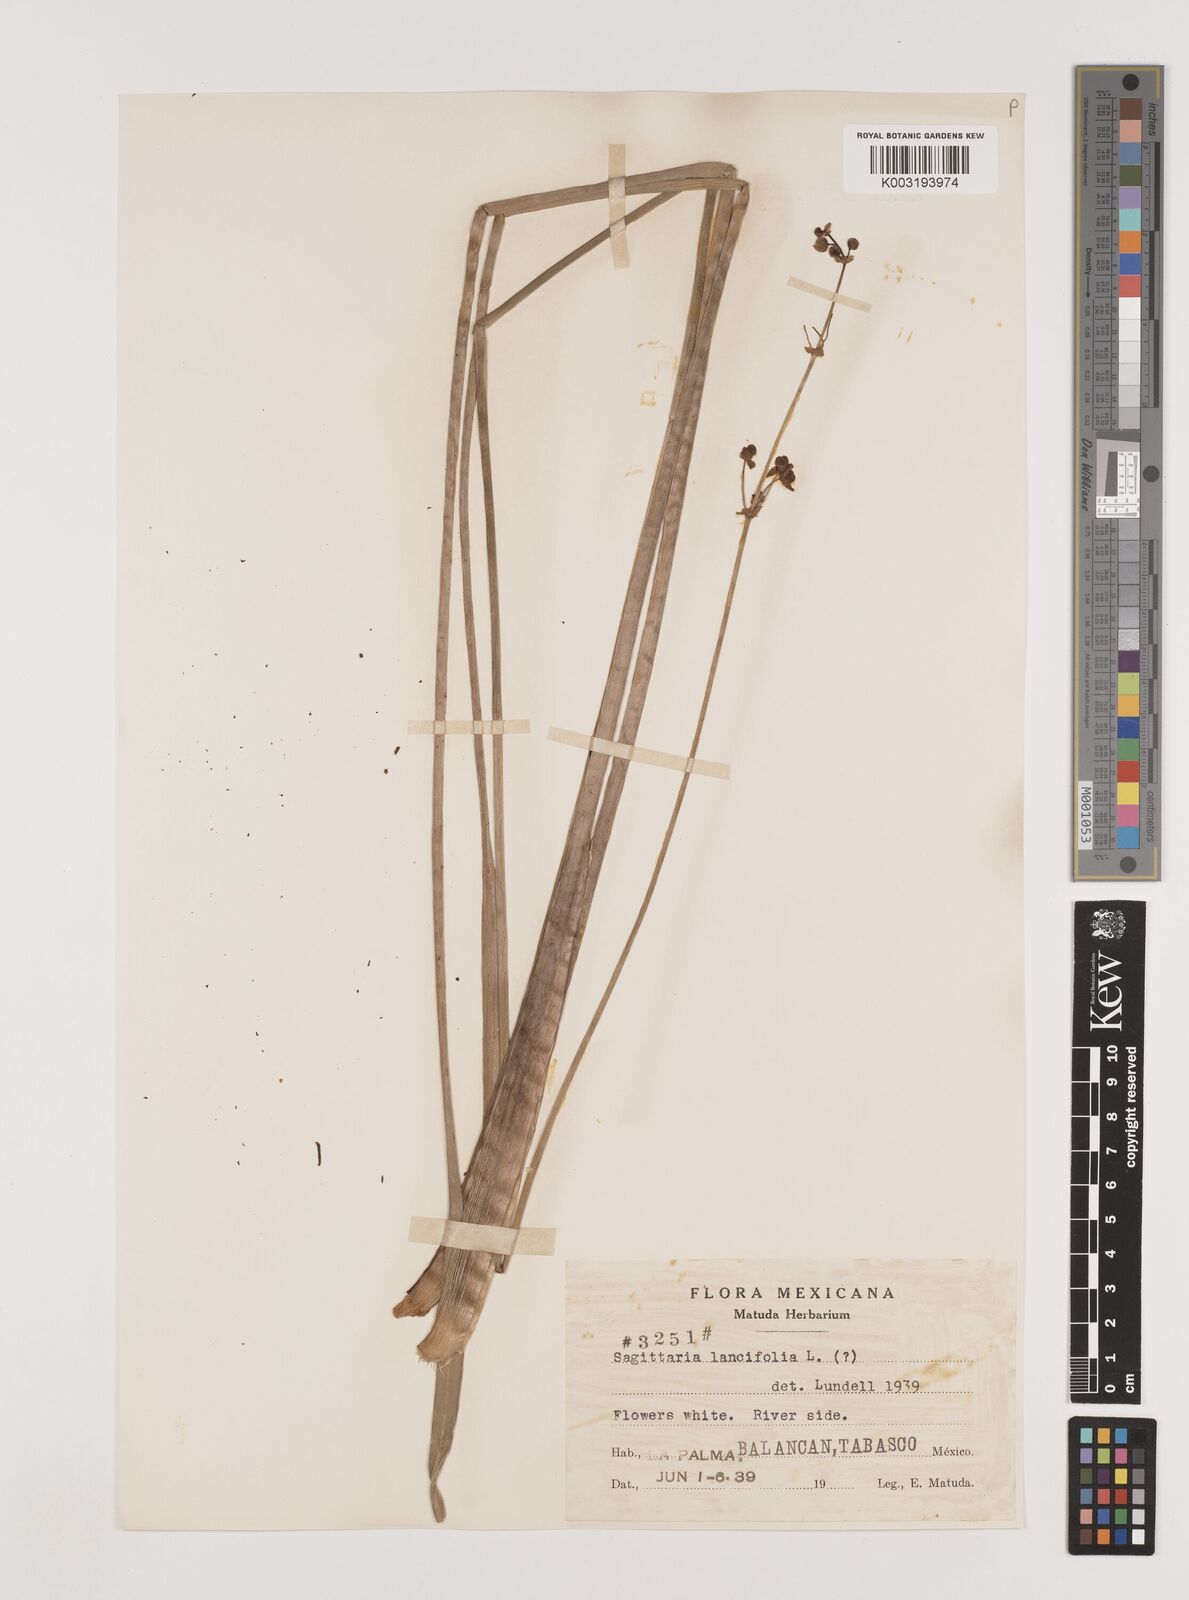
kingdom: Plantae
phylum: Tracheophyta
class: Liliopsida
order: Alismatales
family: Alismataceae
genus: Sagittaria
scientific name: Sagittaria lancifolia
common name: Lance-leaf arrowhead
